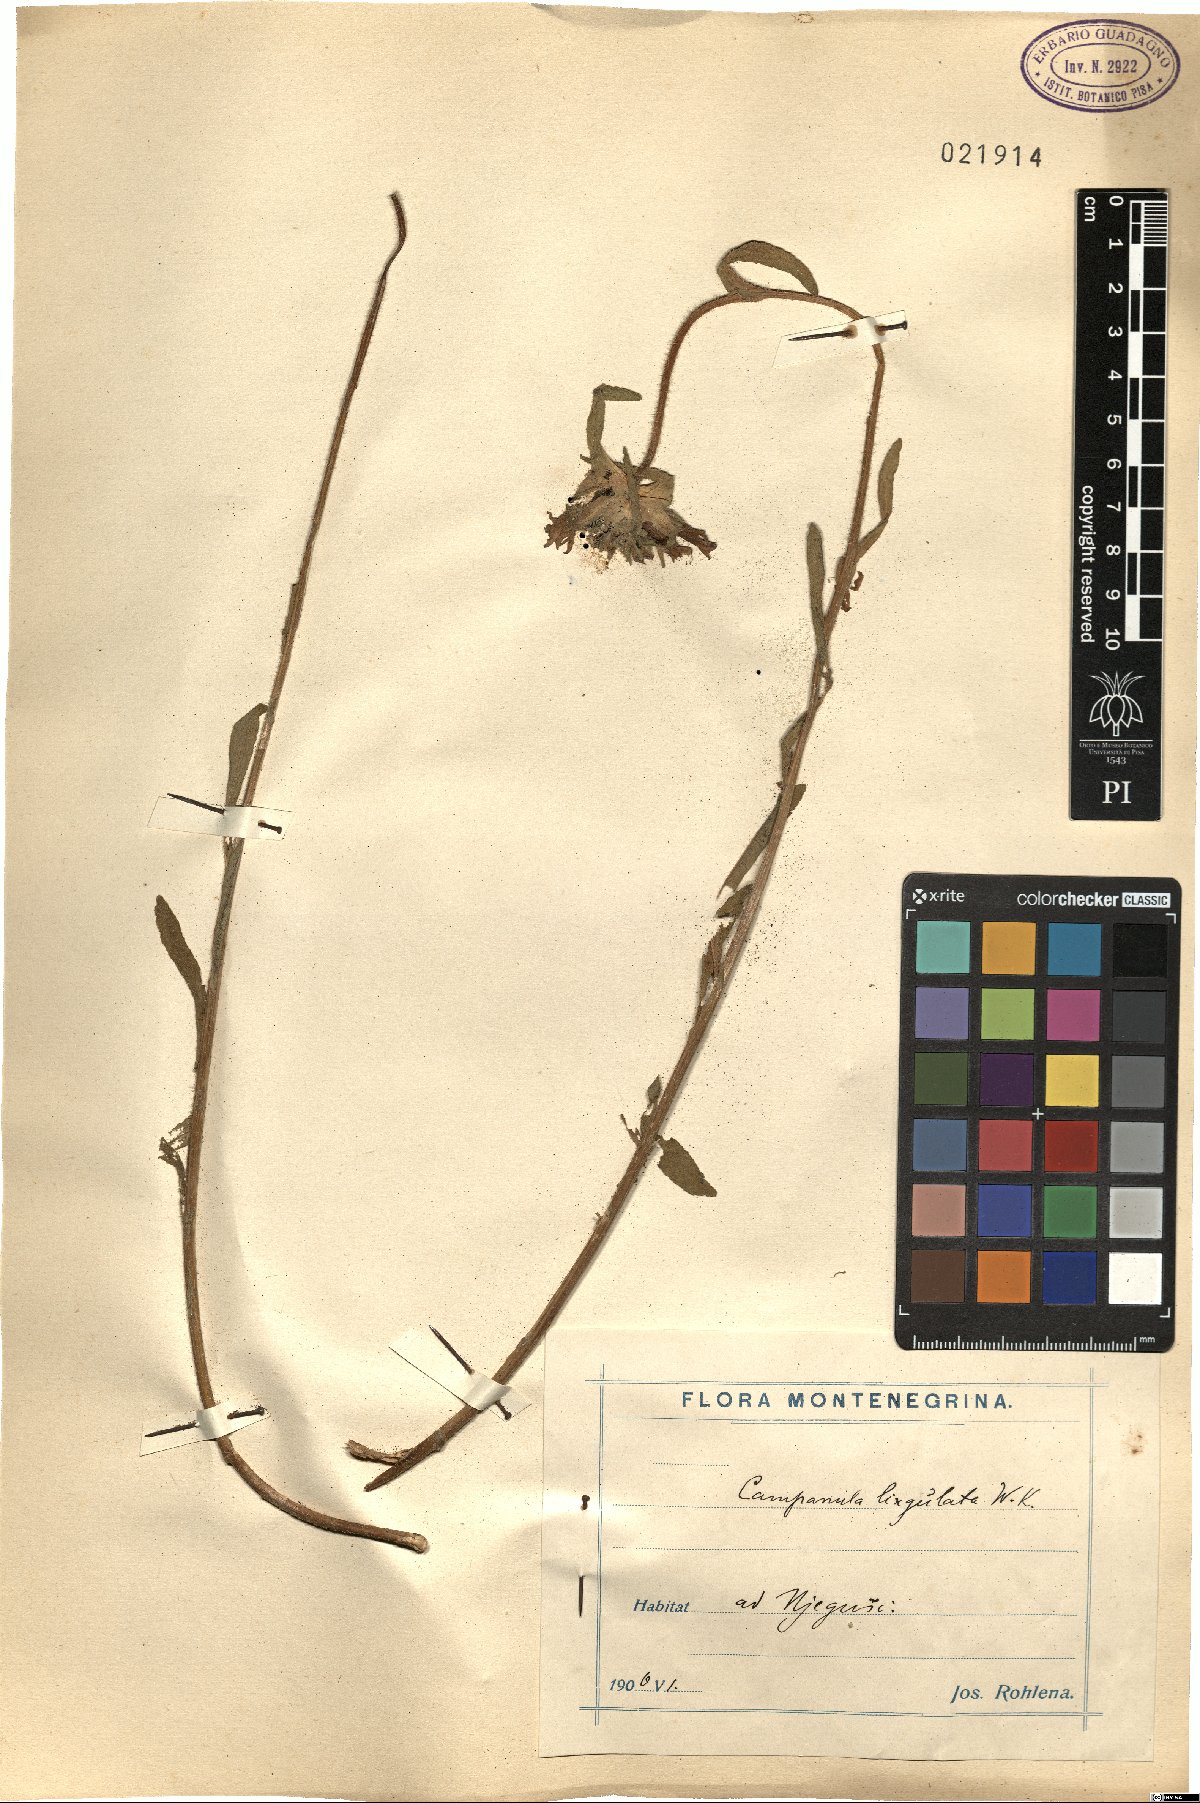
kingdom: Plantae
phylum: Tracheophyta
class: Magnoliopsida
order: Asterales
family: Campanulaceae
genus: Campanula
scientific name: Campanula lingulata
